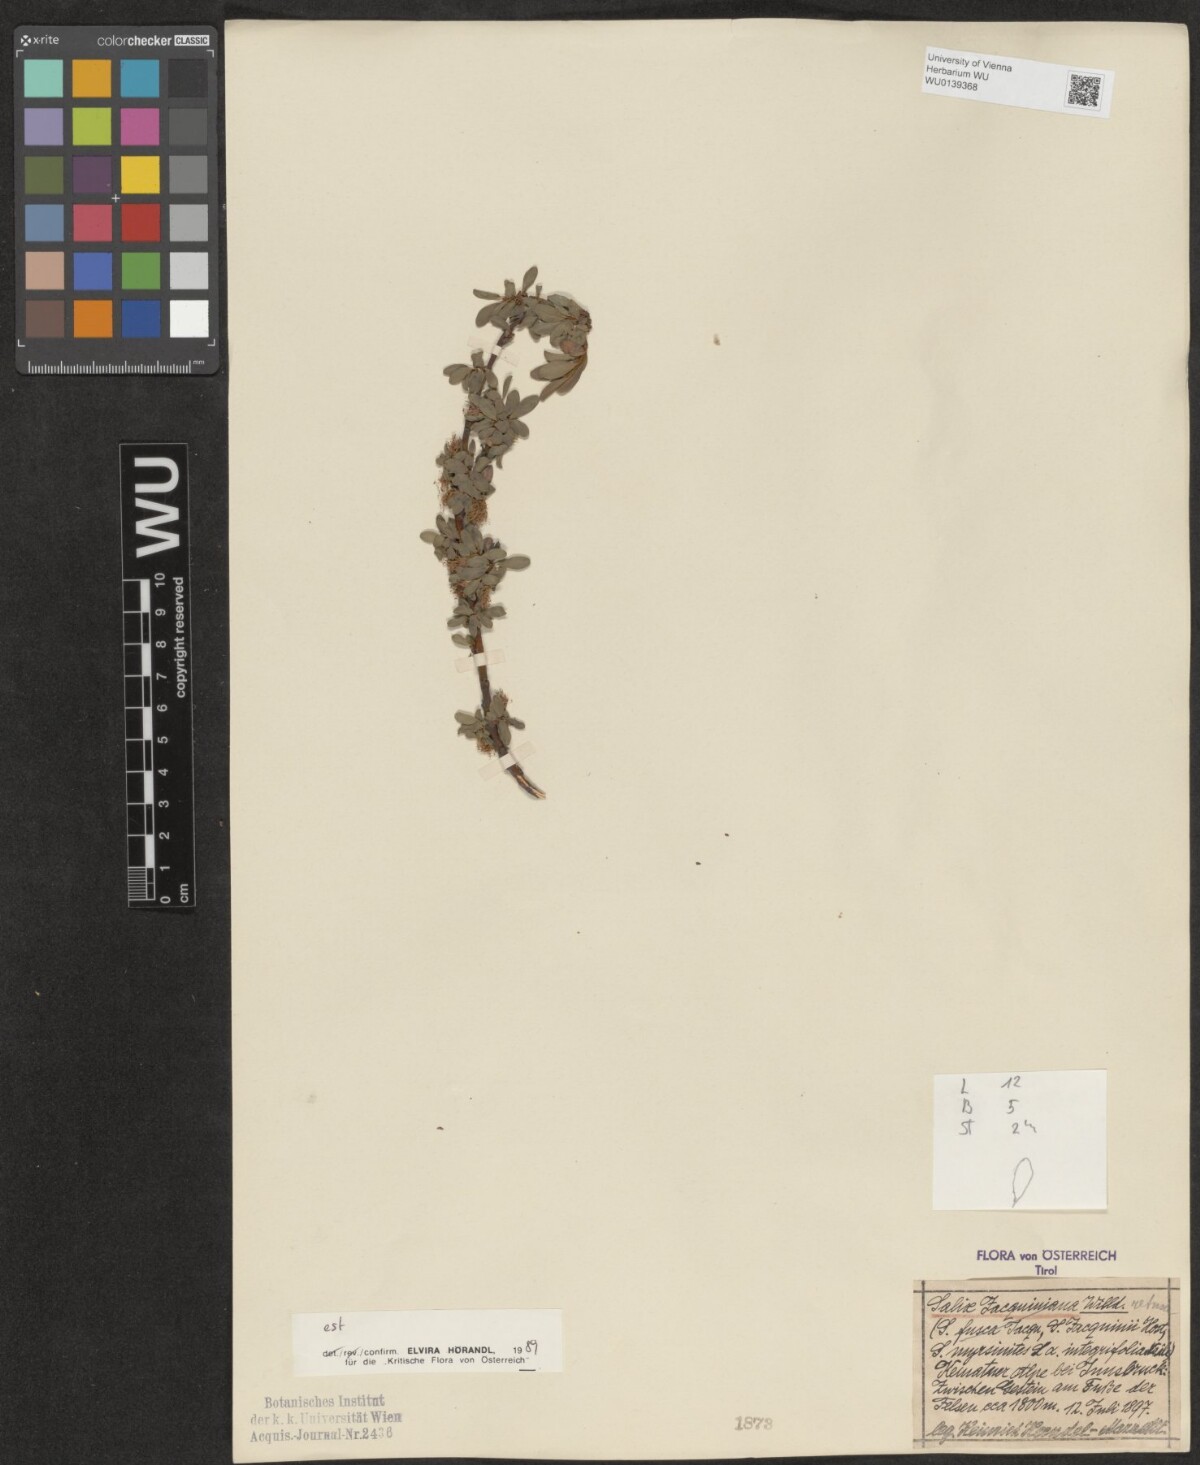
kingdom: Plantae
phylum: Tracheophyta
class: Magnoliopsida
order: Malpighiales
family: Salicaceae
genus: Salix
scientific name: Salix retusa
